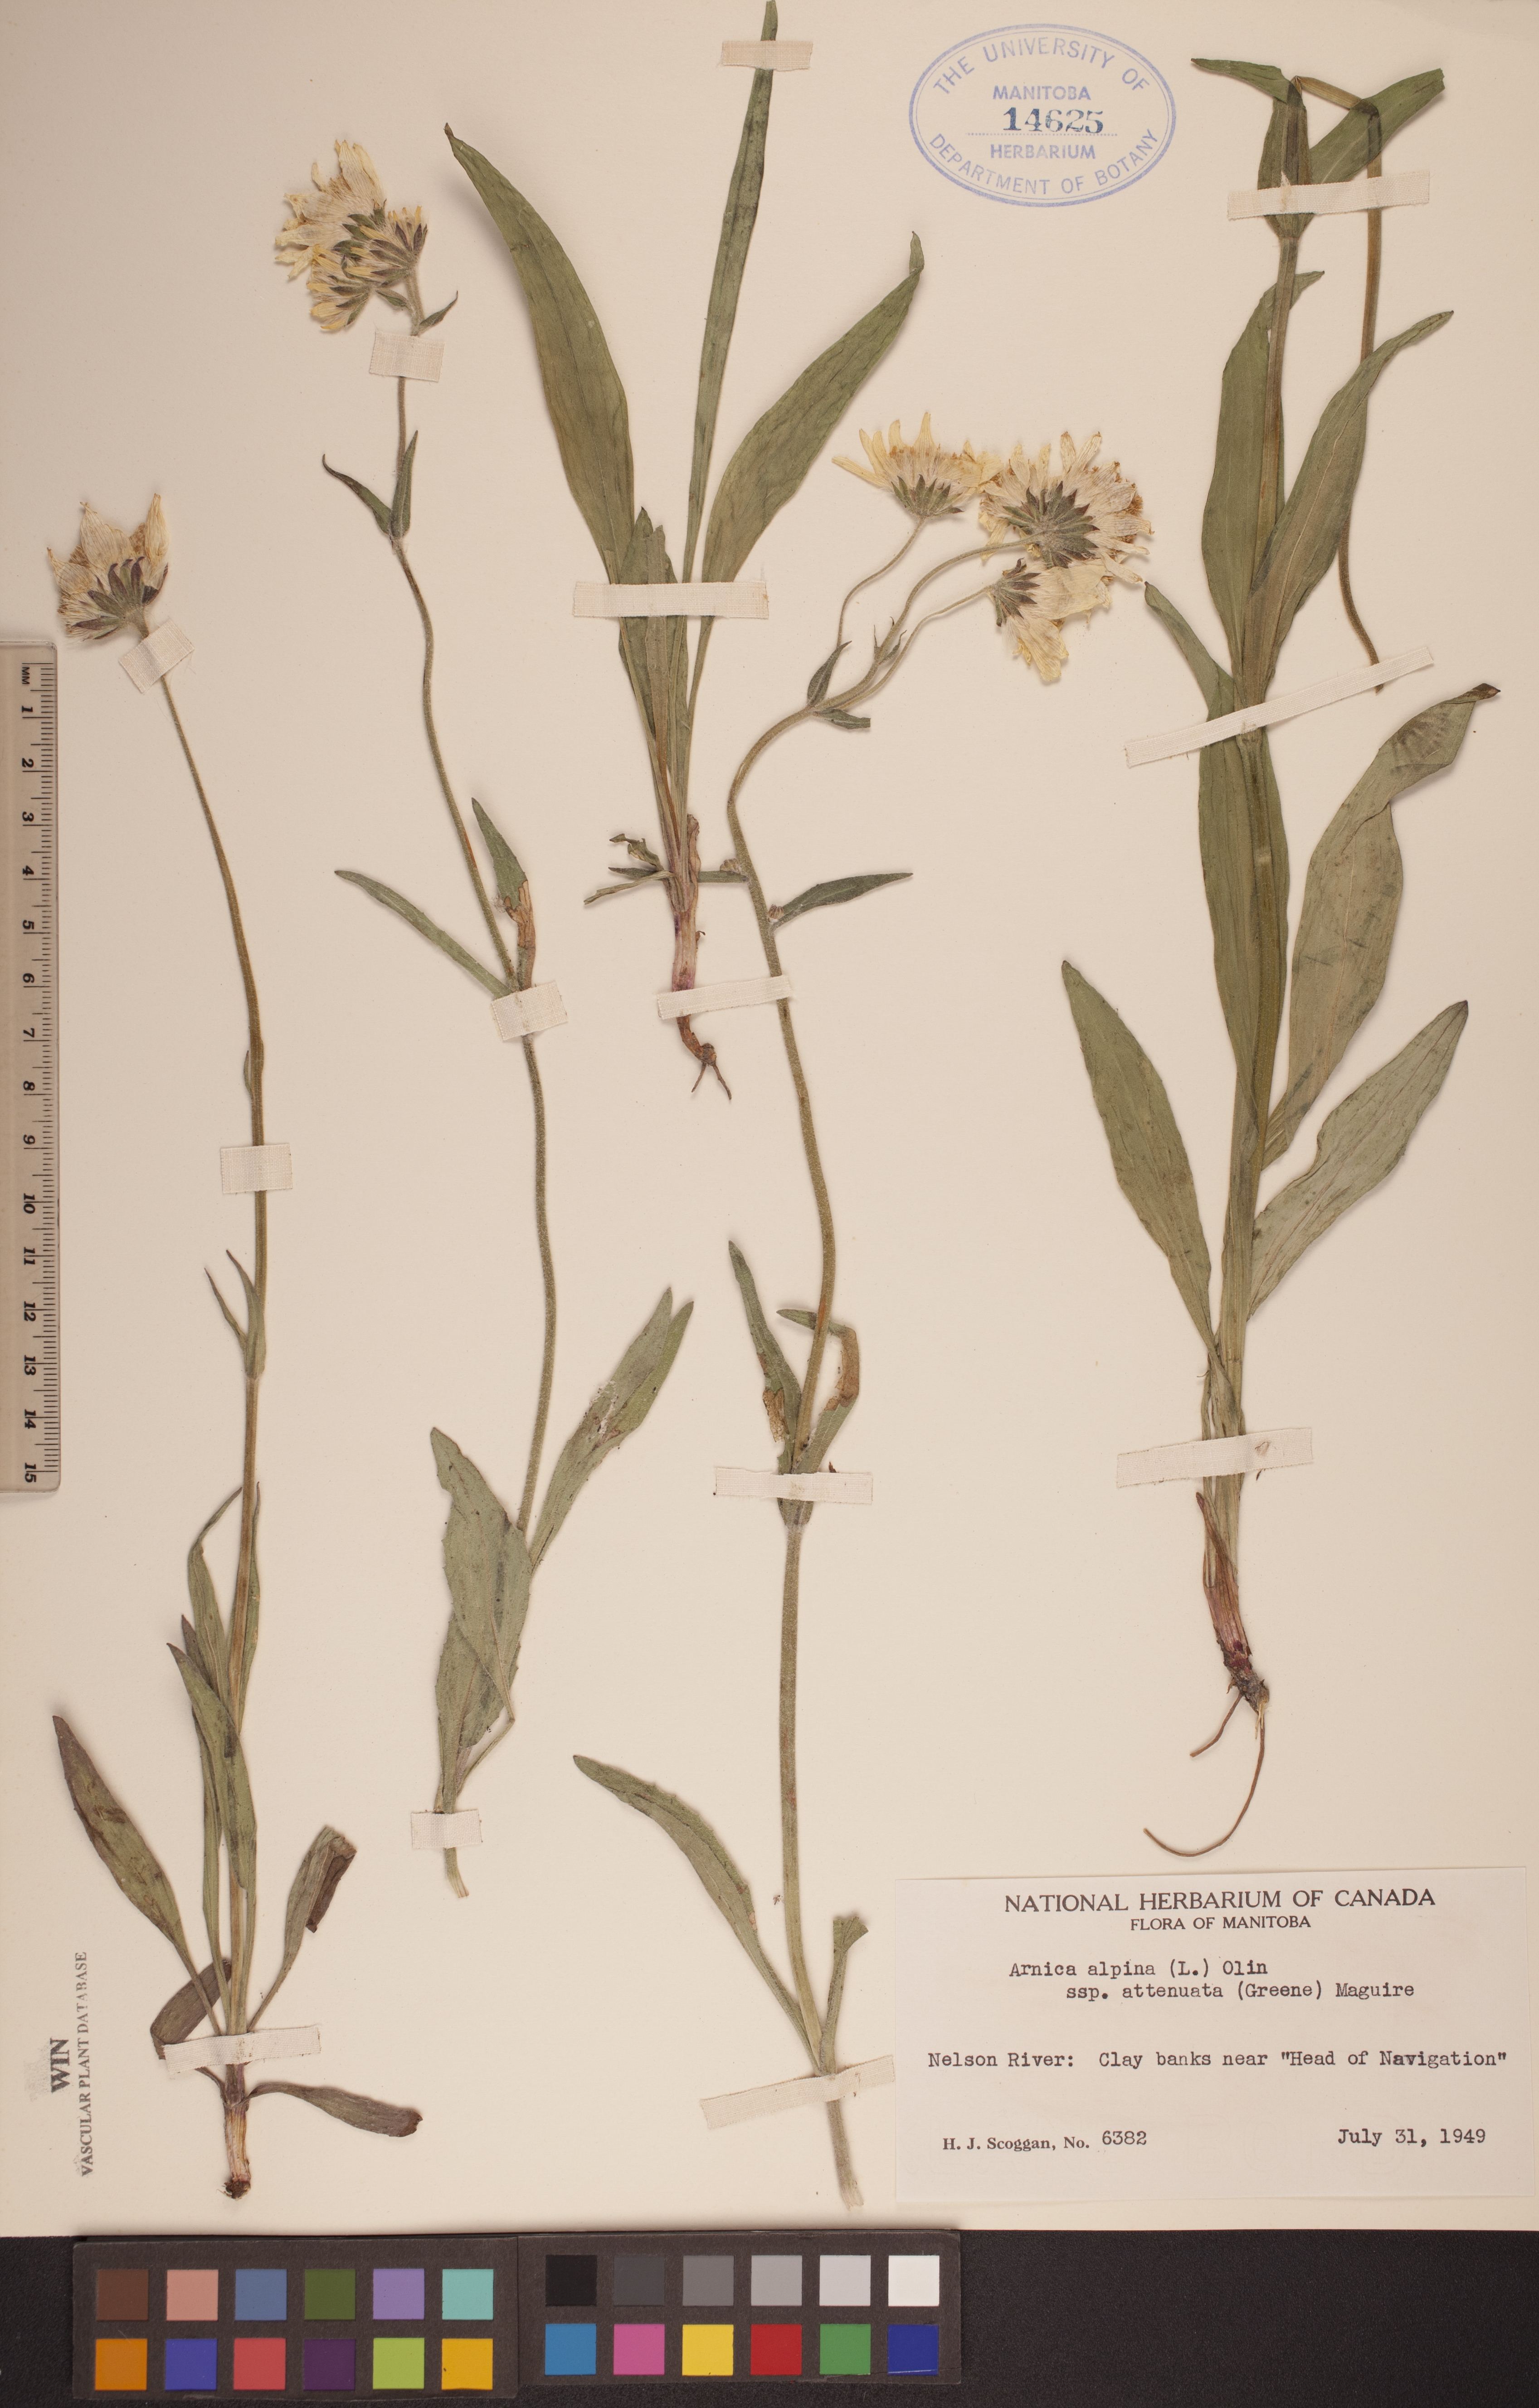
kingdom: Plantae
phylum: Tracheophyta
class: Magnoliopsida
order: Asterales
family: Asteraceae
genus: Arnica
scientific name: Arnica angustifolia
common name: Arctic arnica
